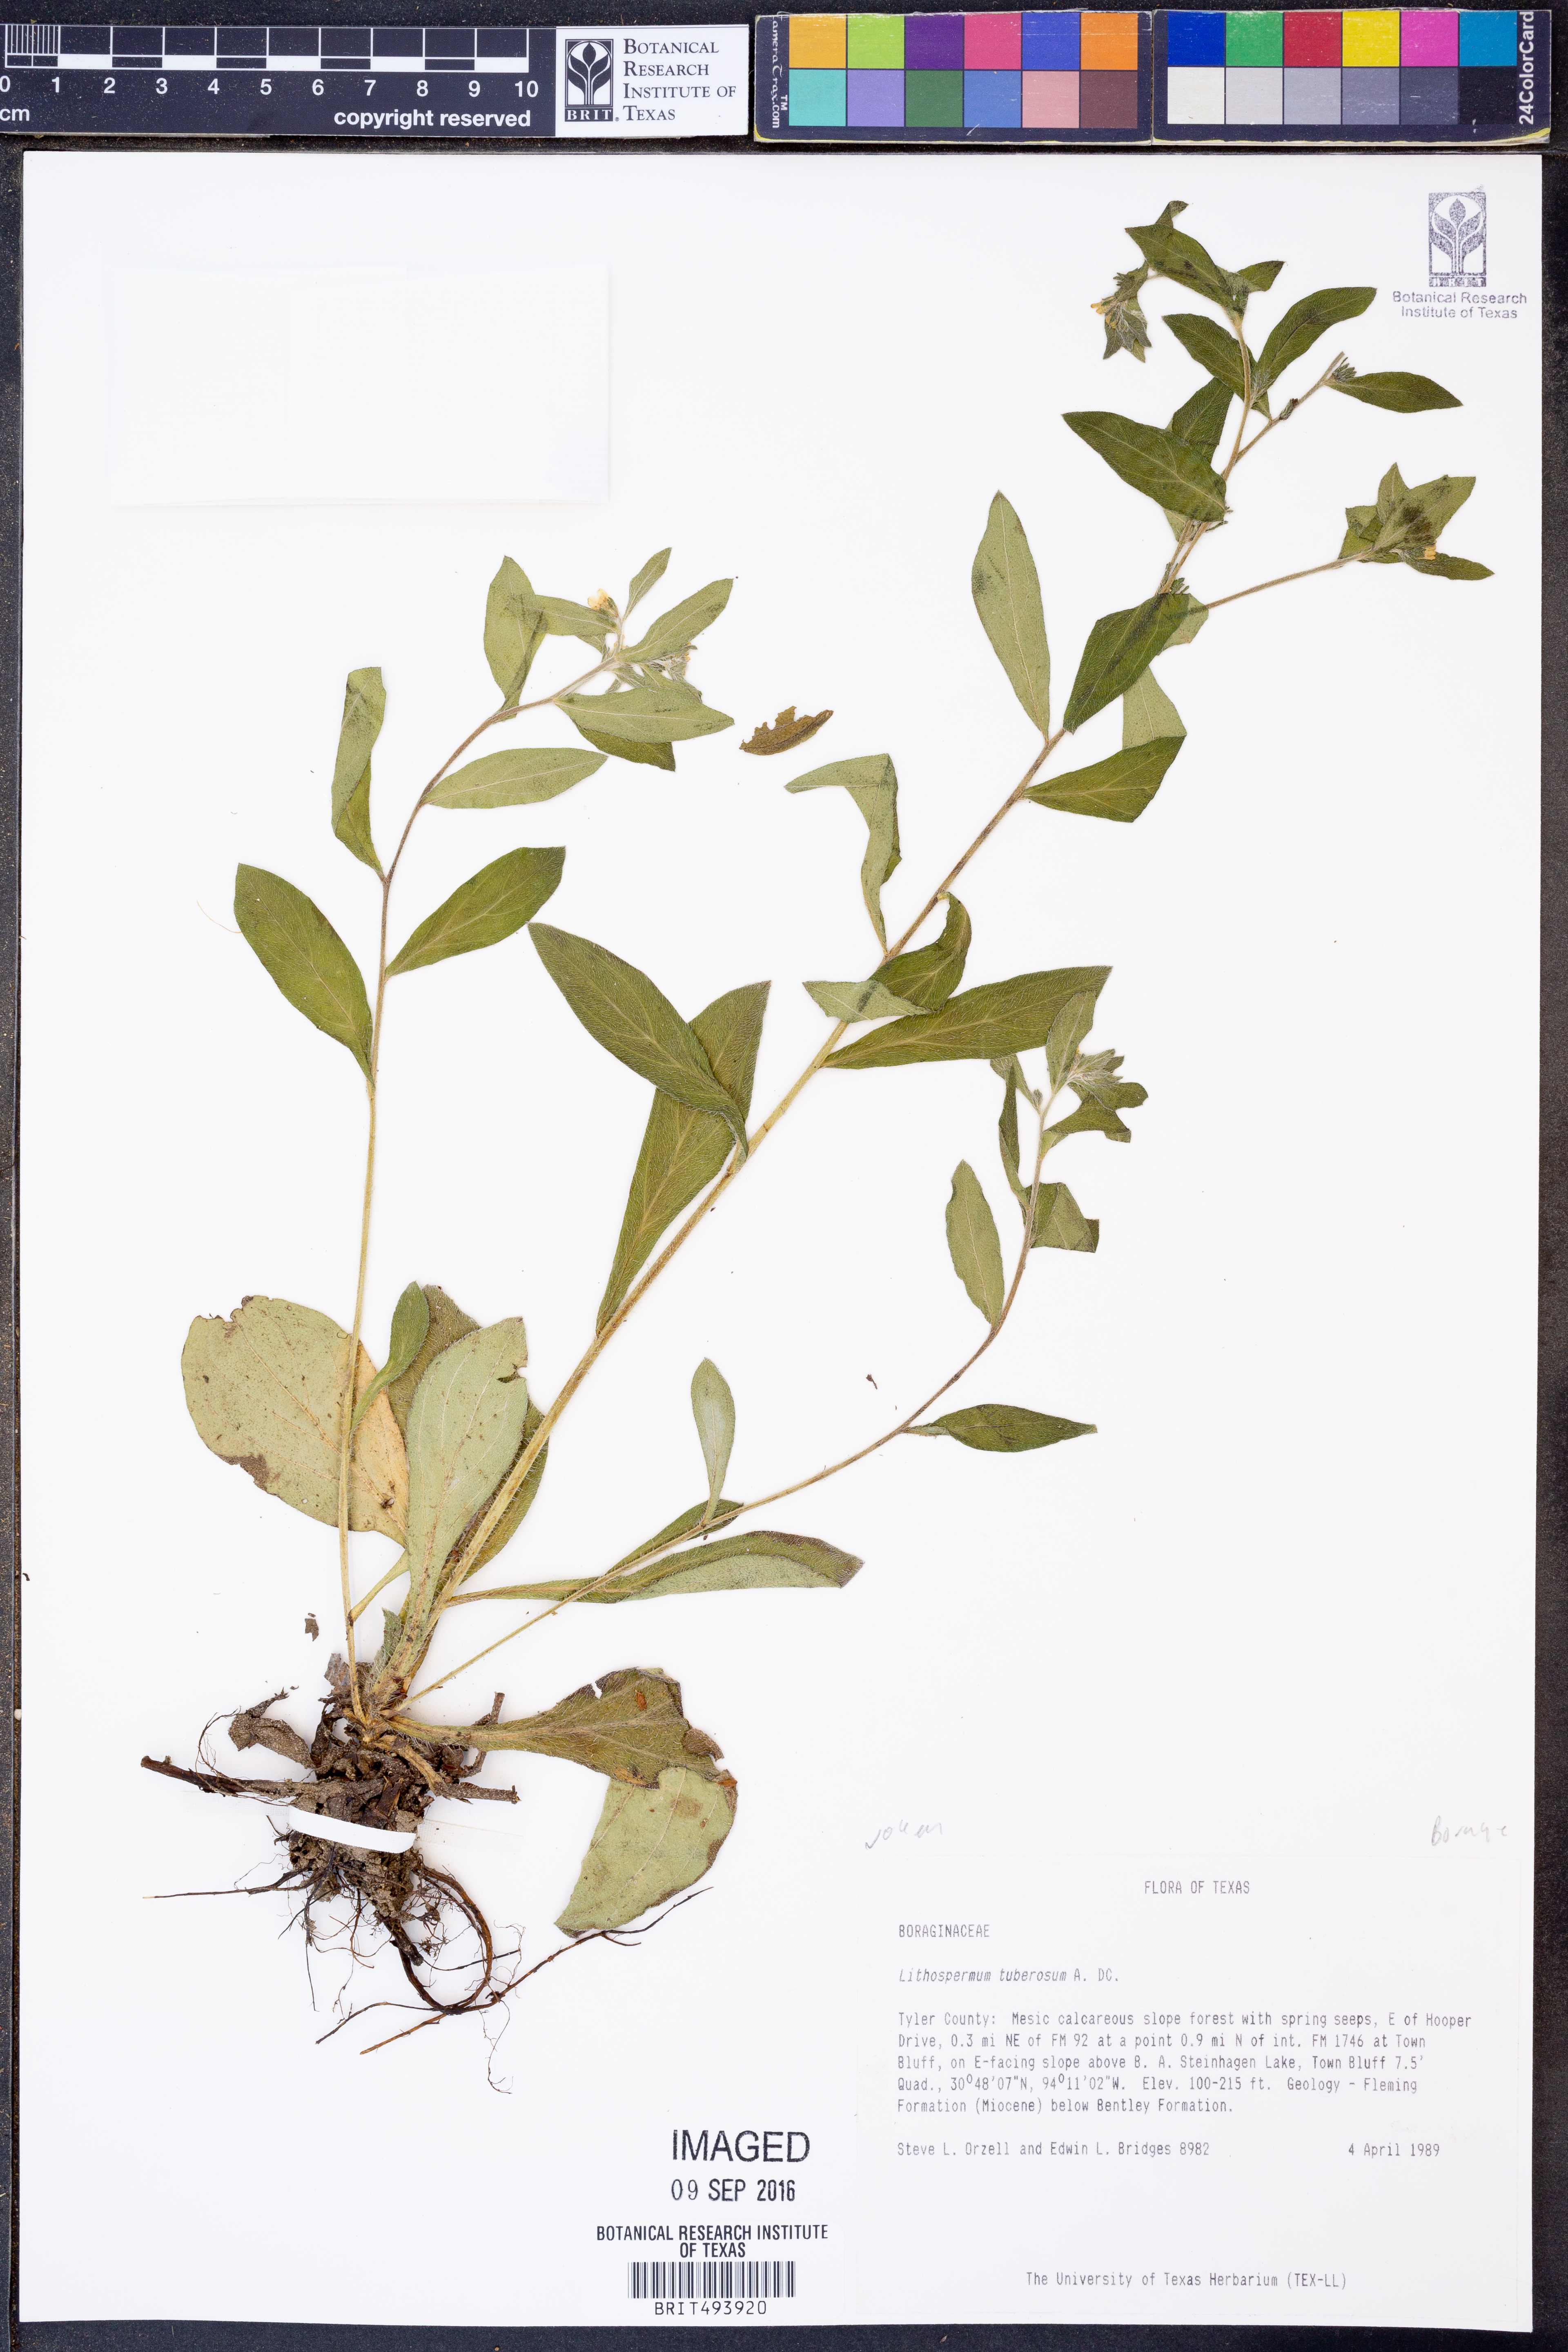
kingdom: Plantae
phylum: Tracheophyta
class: Magnoliopsida
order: Boraginales
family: Boraginaceae
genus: Lithospermum
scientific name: Lithospermum tuberosum
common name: Southern stoneseed
